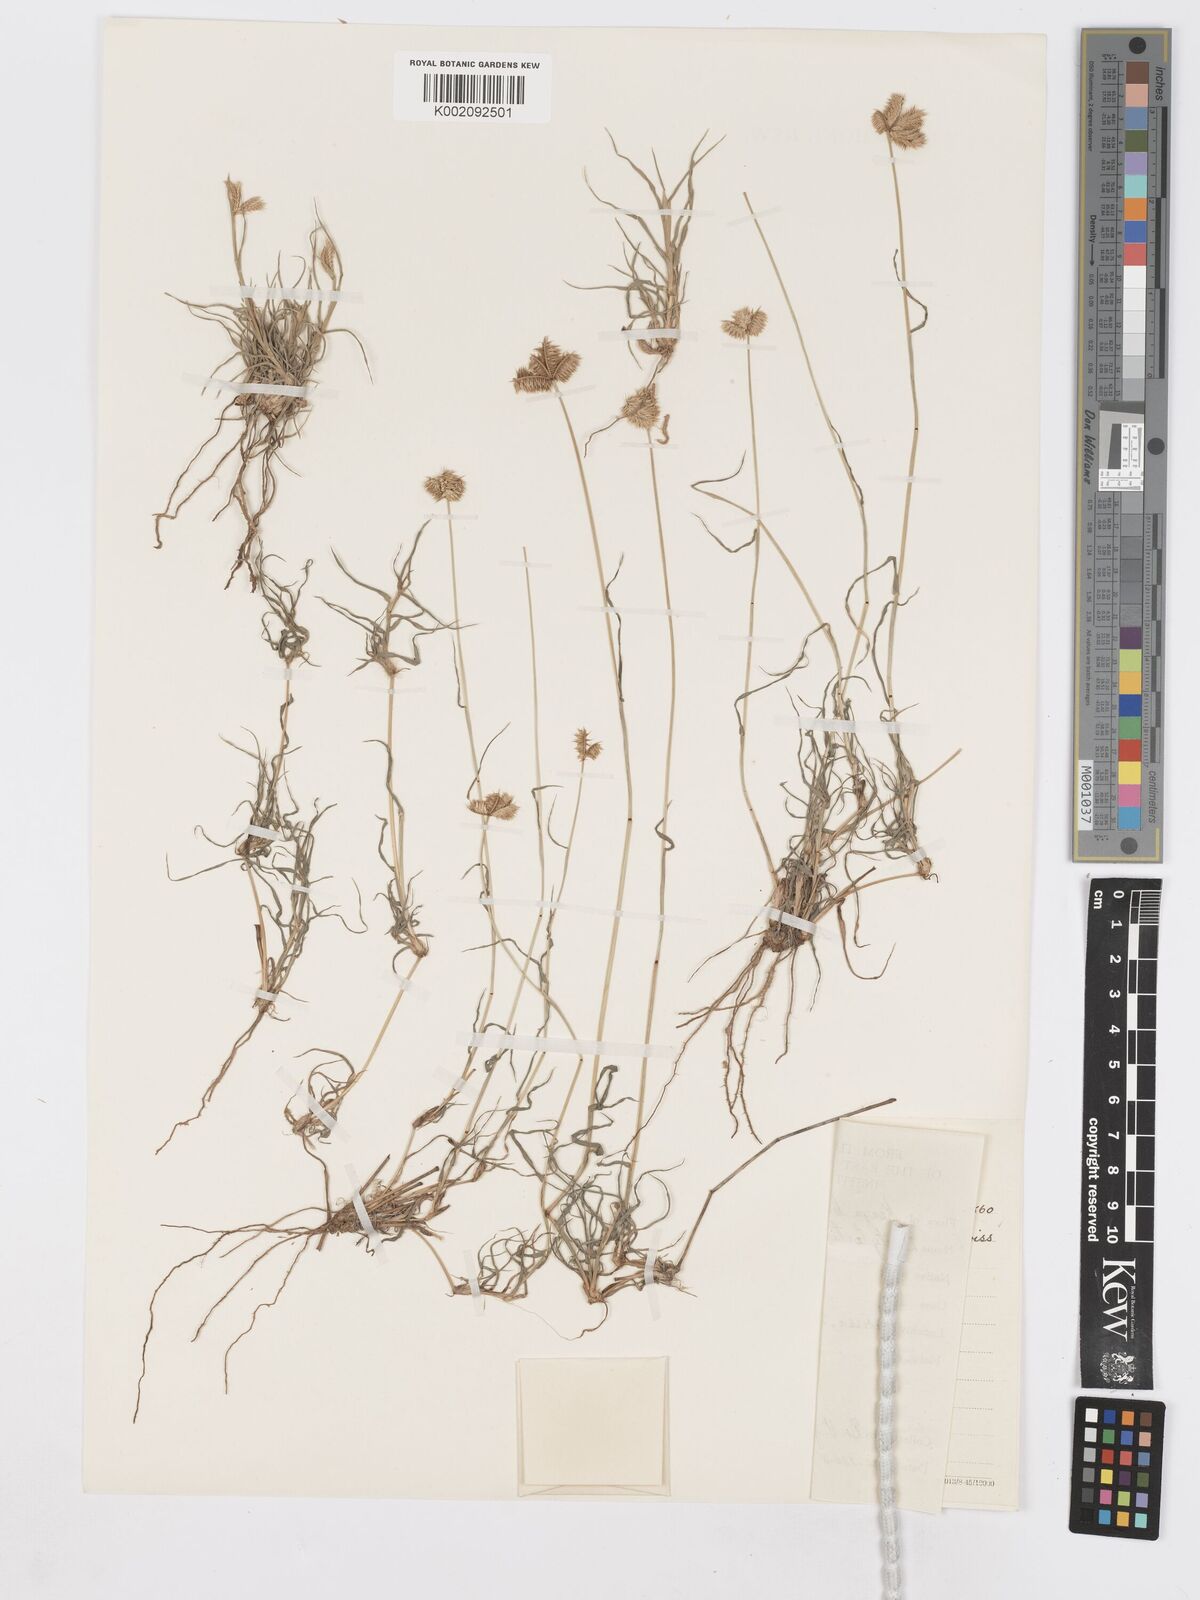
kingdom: Plantae
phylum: Tracheophyta
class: Liliopsida
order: Poales
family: Poaceae
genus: Dactyloctenium
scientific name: Dactyloctenium scindicum
